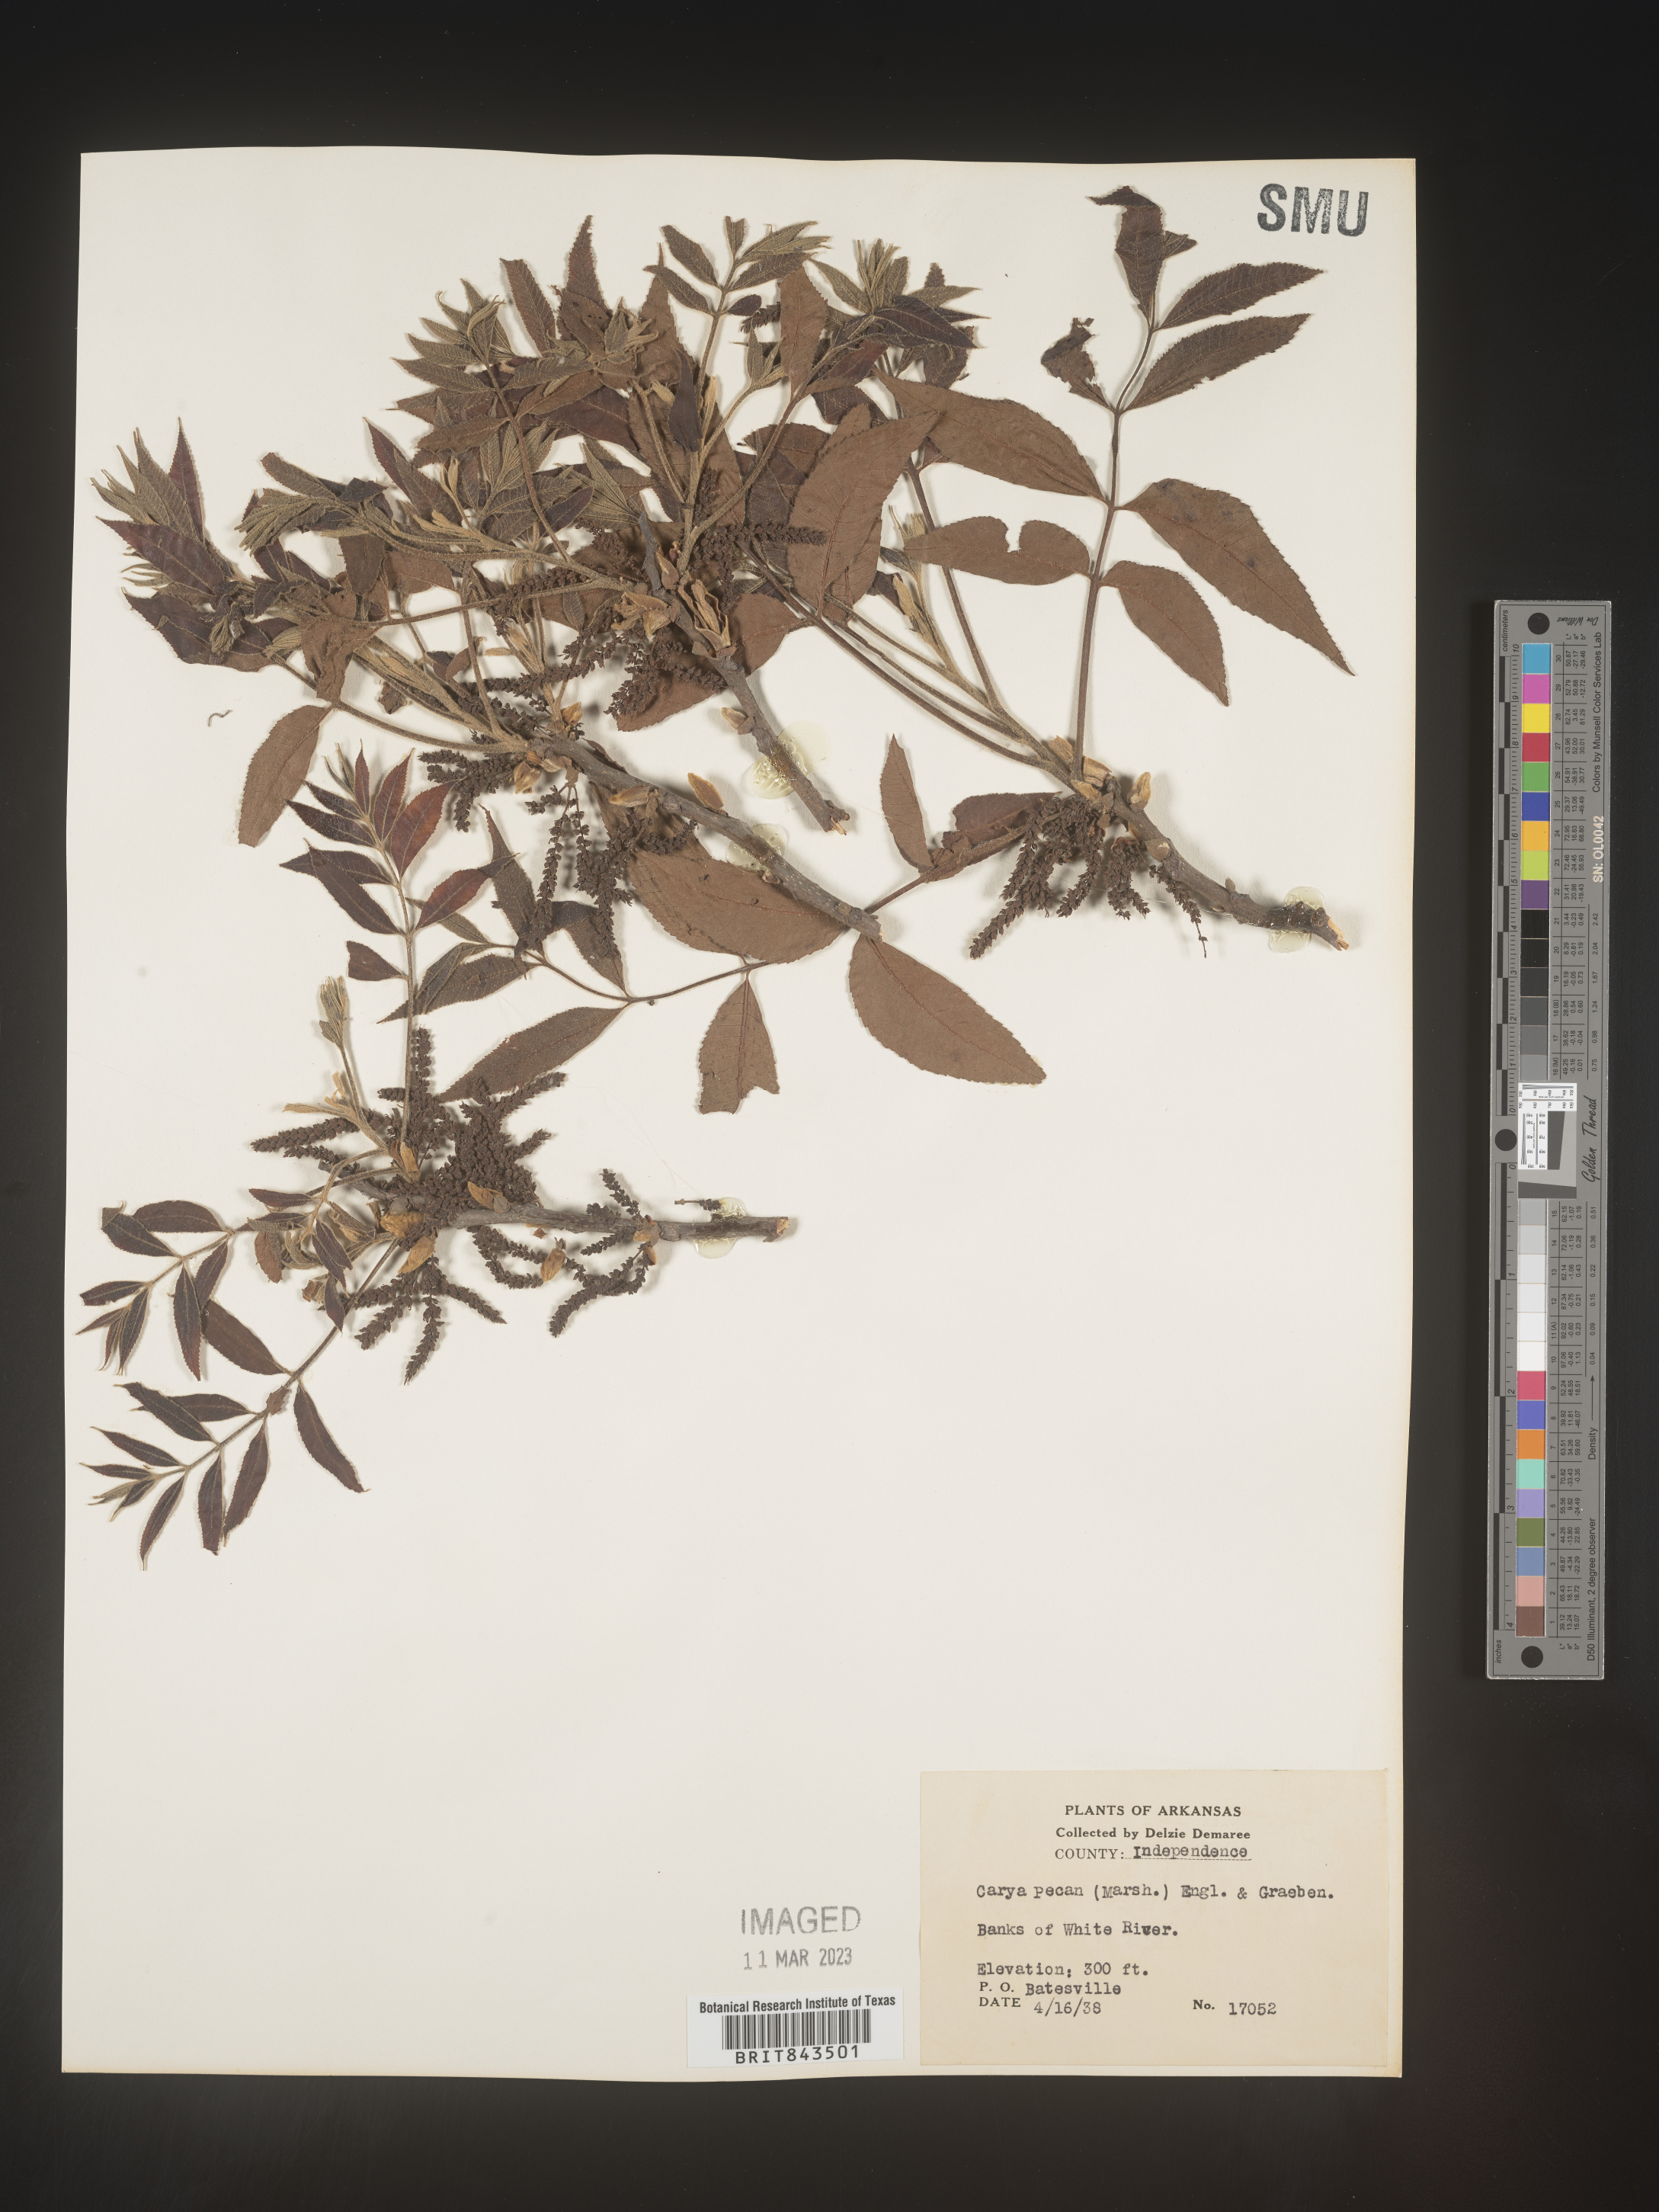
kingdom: Plantae
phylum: Tracheophyta
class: Magnoliopsida
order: Fagales
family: Juglandaceae
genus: Carya
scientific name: Carya illinoinensis
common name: Pecan
